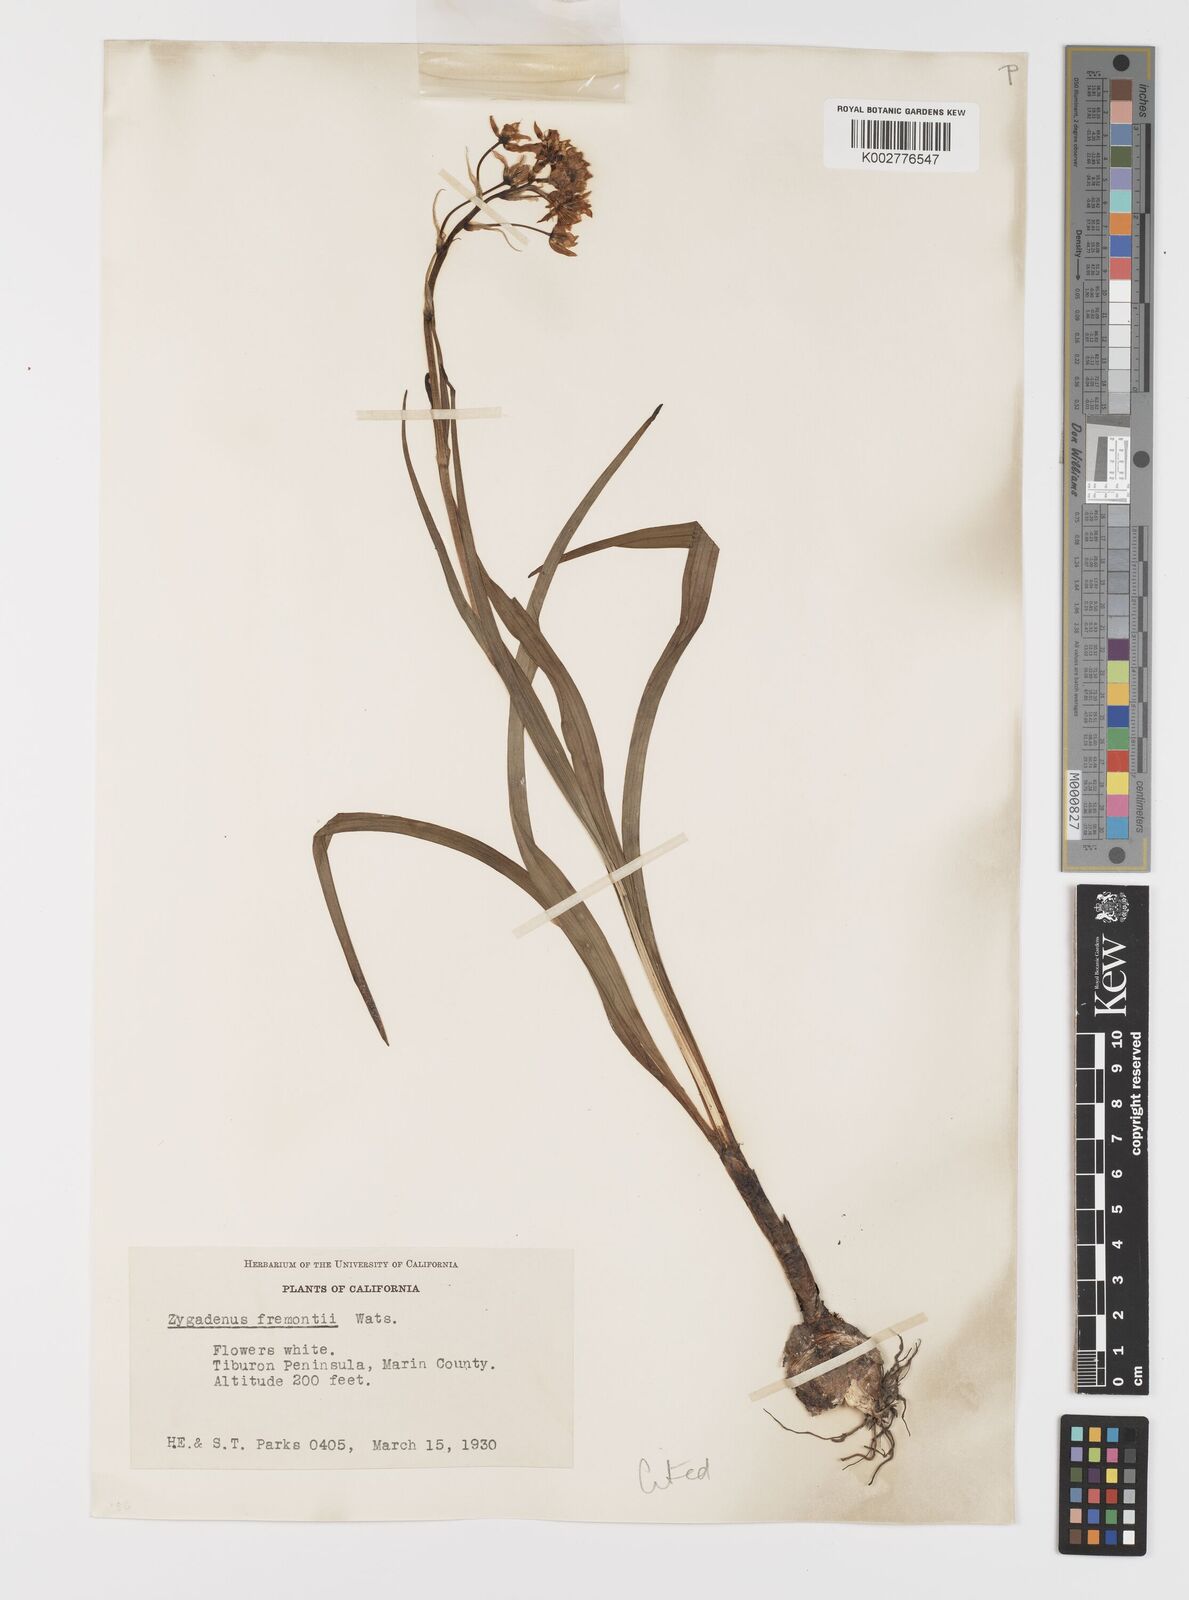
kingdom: Plantae
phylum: Tracheophyta
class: Liliopsida
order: Liliales
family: Melanthiaceae
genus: Toxicoscordion
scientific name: Toxicoscordion fremontii
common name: Fremont's death camas
